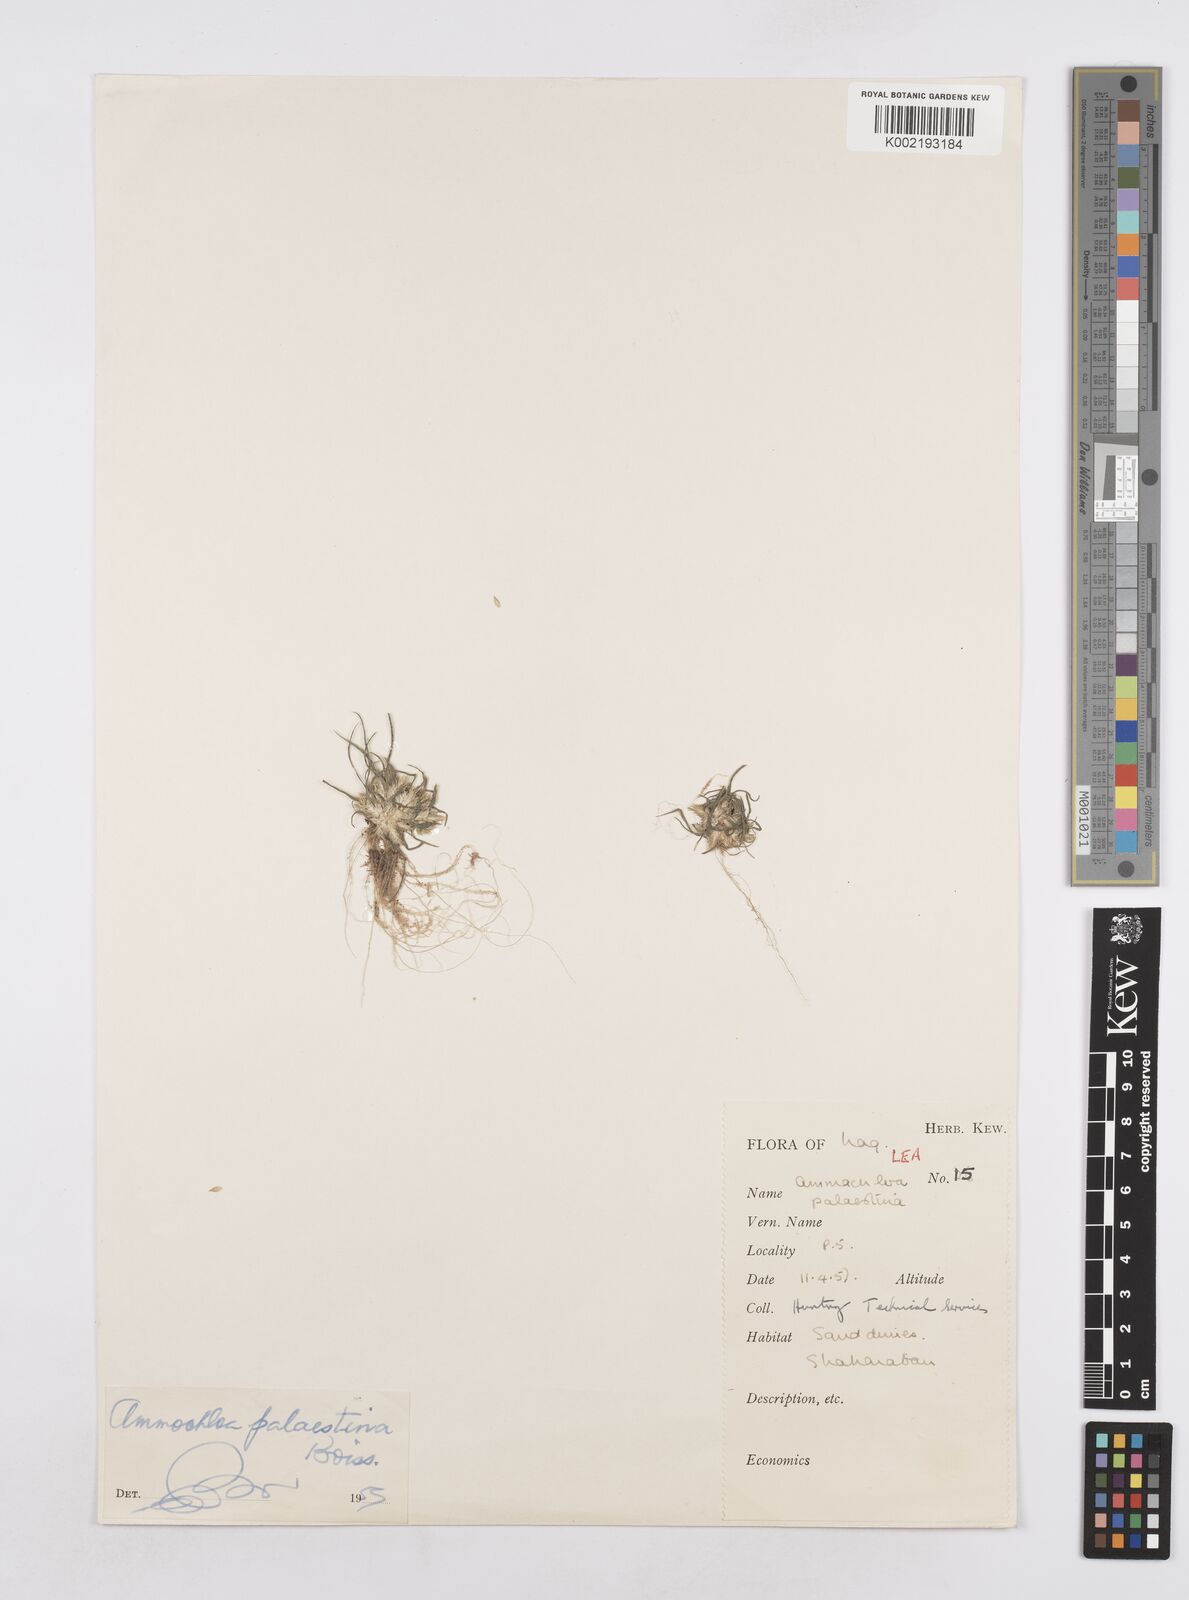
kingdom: Plantae
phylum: Tracheophyta
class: Liliopsida
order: Poales
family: Poaceae
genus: Ammochloa
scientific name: Ammochloa palaestina
